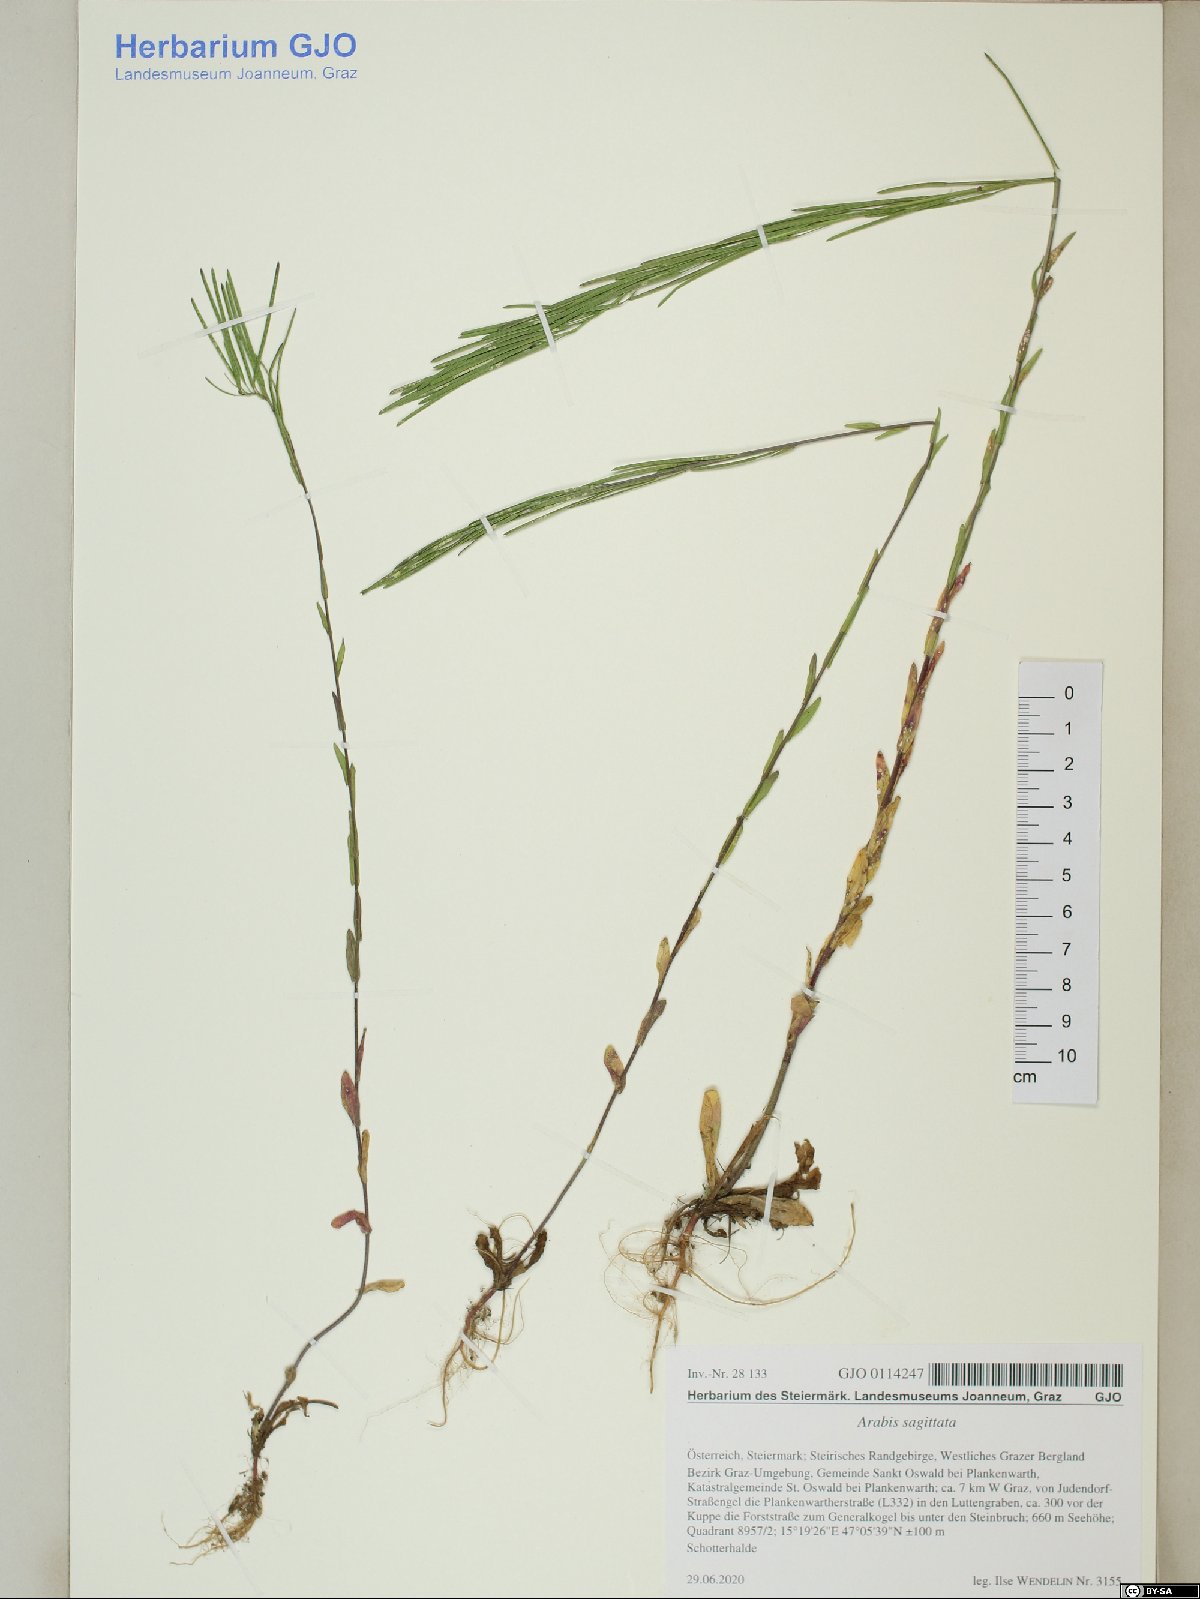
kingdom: Plantae
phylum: Tracheophyta
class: Magnoliopsida
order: Brassicales
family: Brassicaceae
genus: Arabis
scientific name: Arabis sagittata
